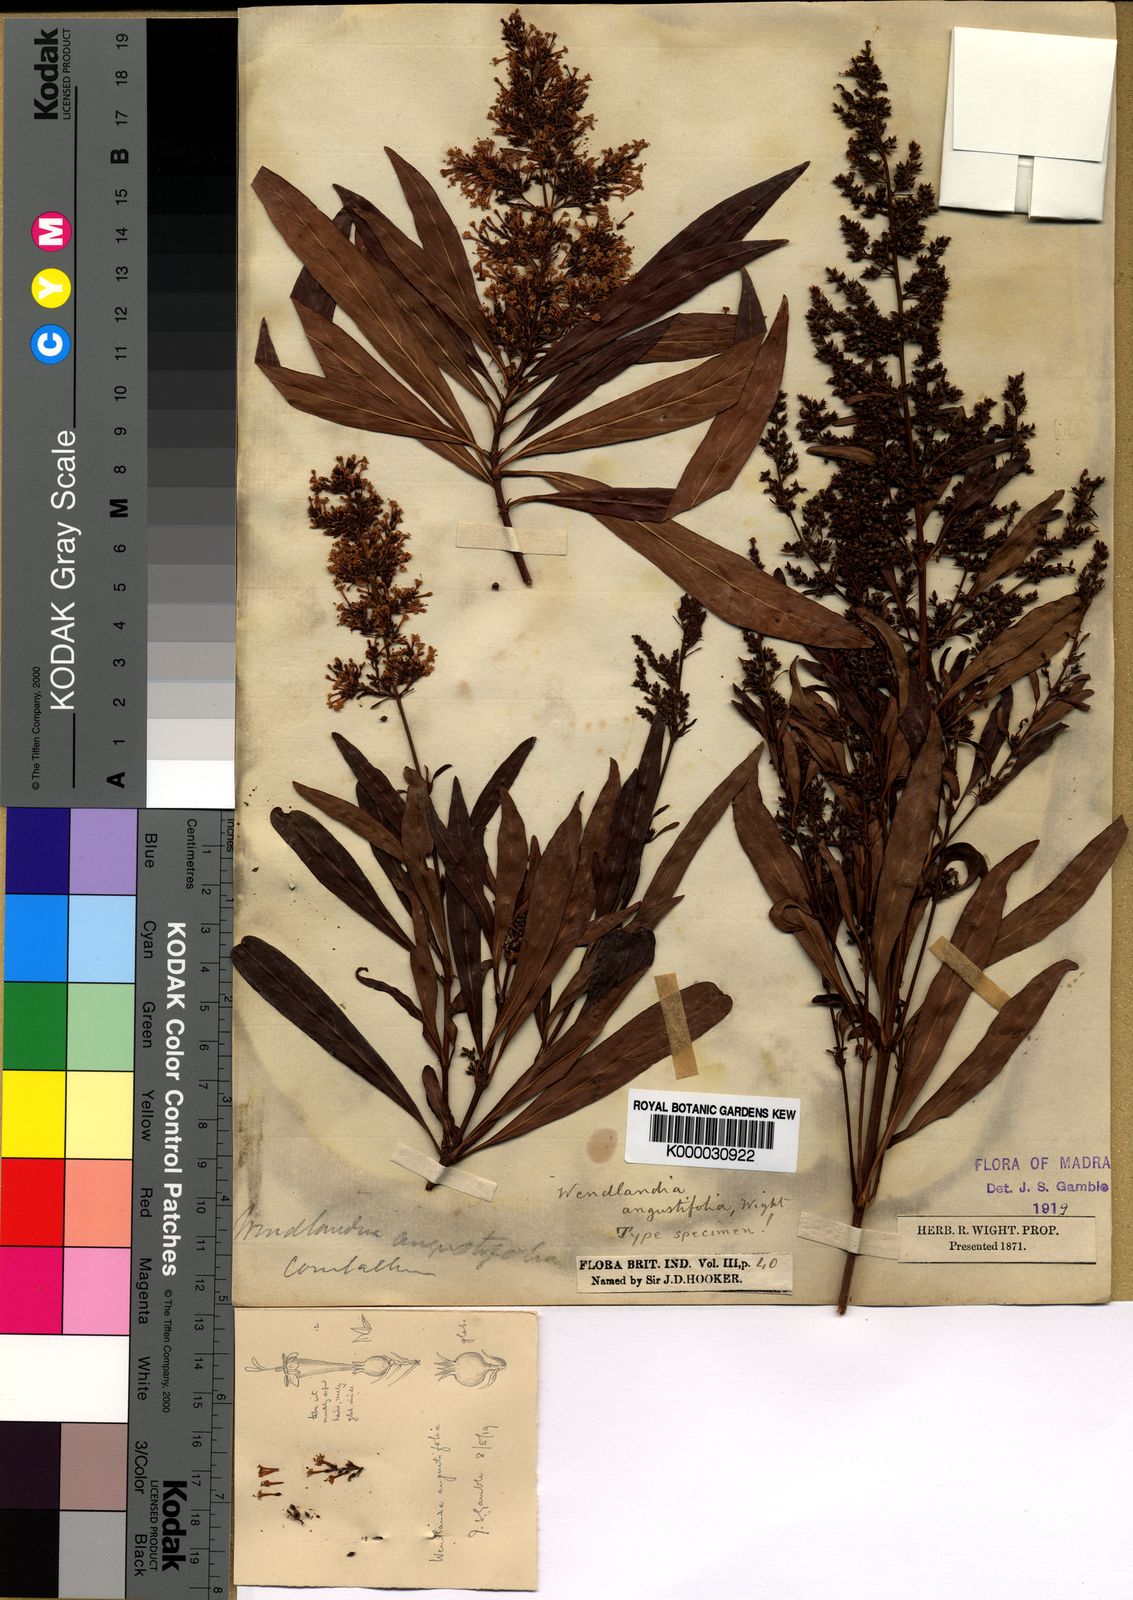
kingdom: Plantae
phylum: Tracheophyta
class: Magnoliopsida
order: Gentianales
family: Rubiaceae
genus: Wendlandia
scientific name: Wendlandia
